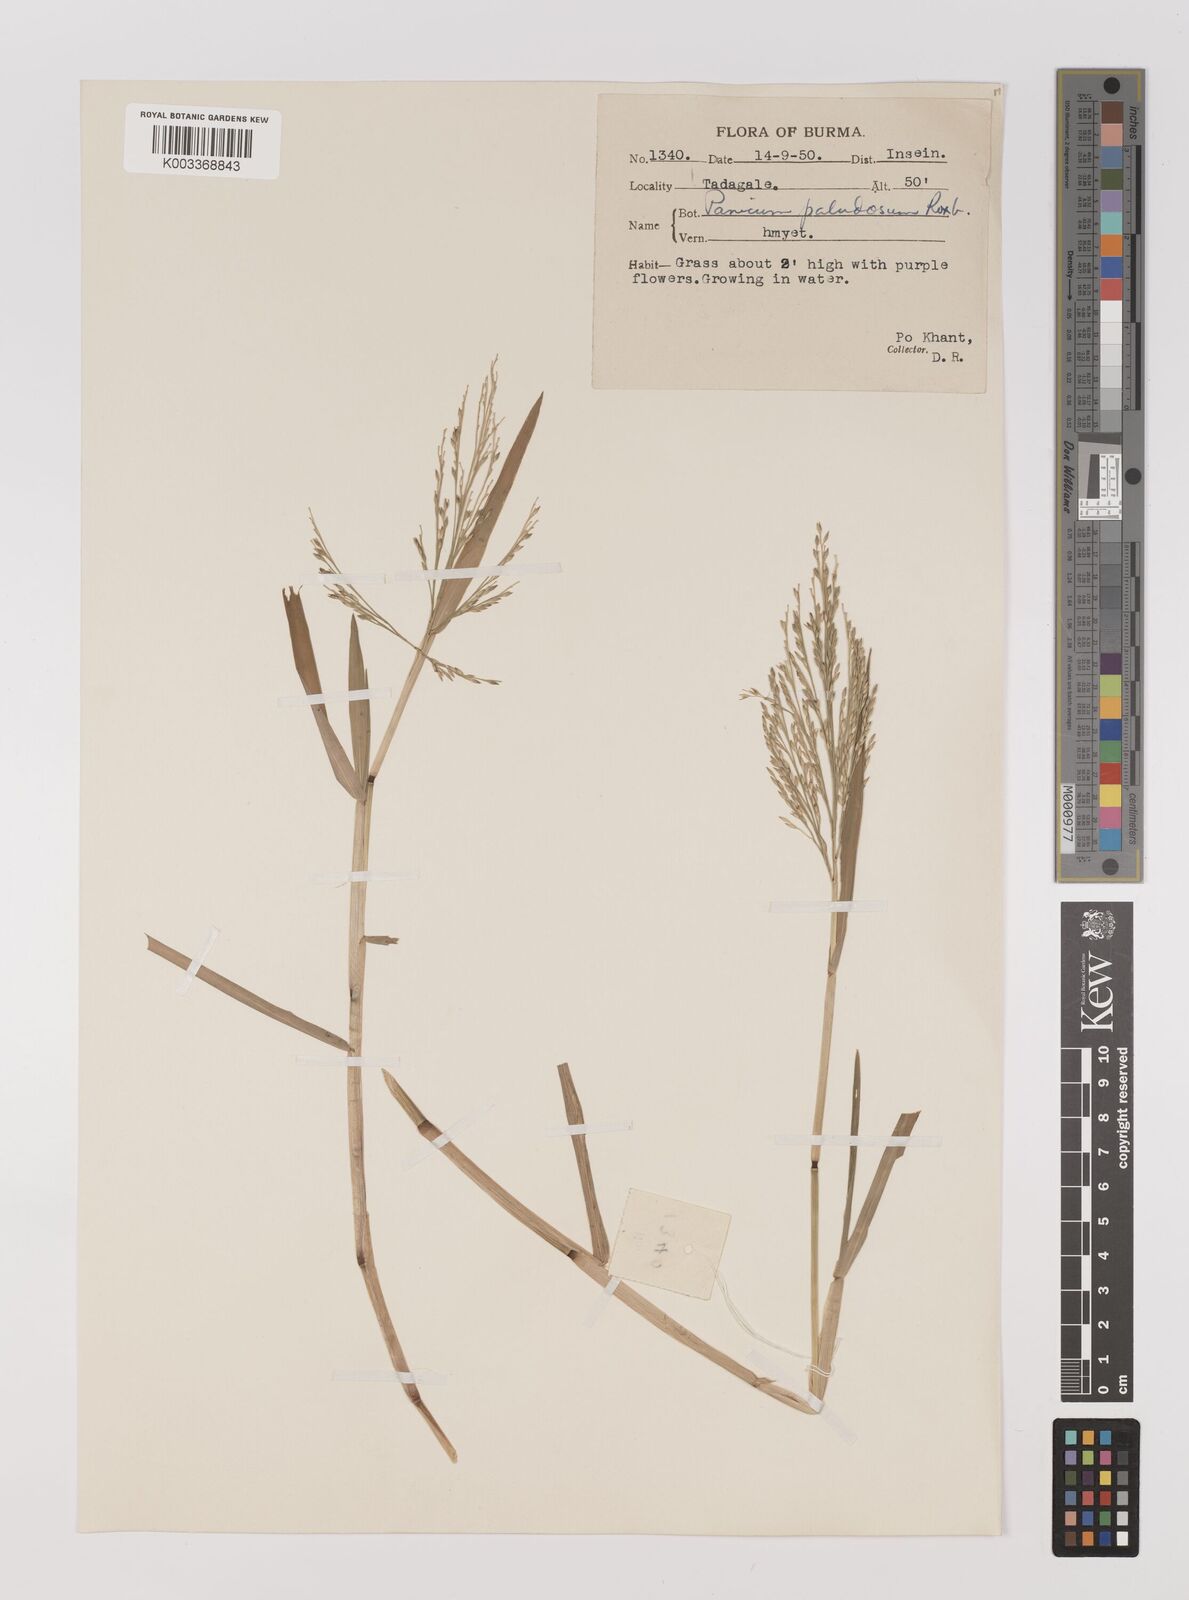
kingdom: Plantae
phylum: Tracheophyta
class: Liliopsida
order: Poales
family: Poaceae
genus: Louisiella
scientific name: Louisiella paludosa
